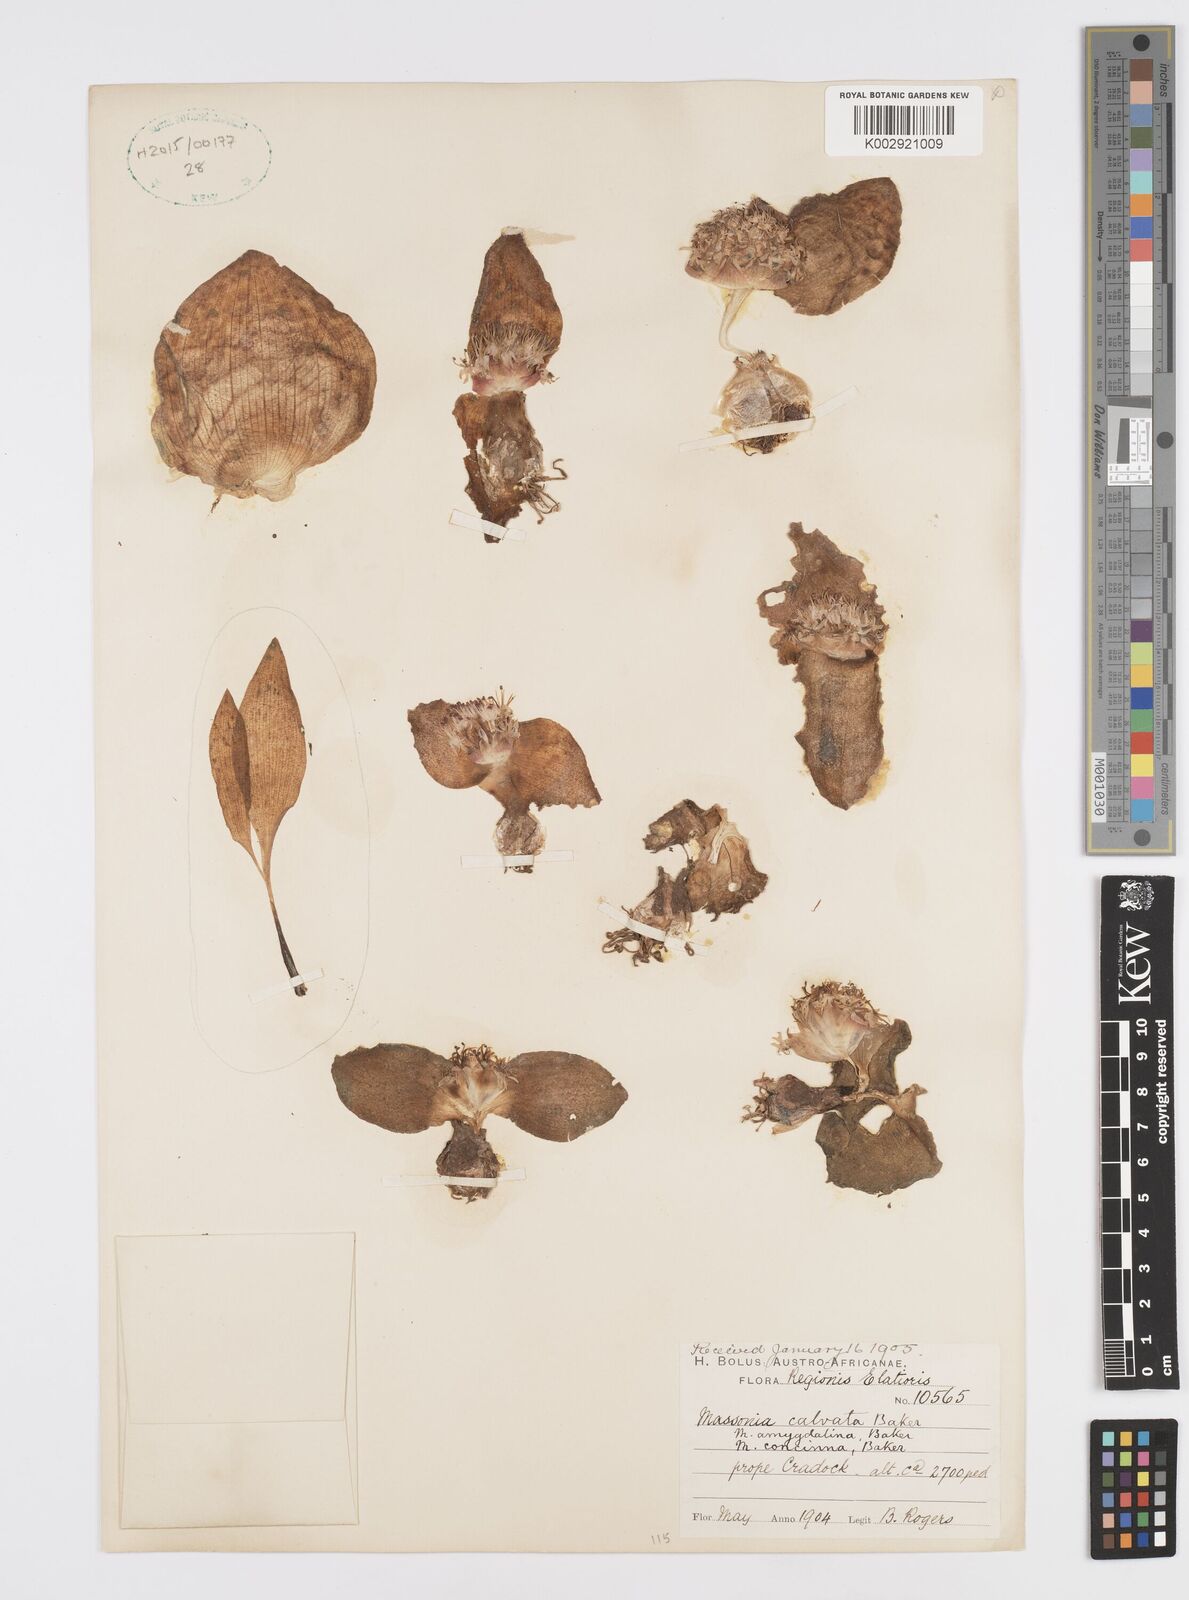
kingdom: Plantae
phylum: Tracheophyta
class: Liliopsida
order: Asparagales
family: Asparagaceae
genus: Massonia
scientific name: Massonia
